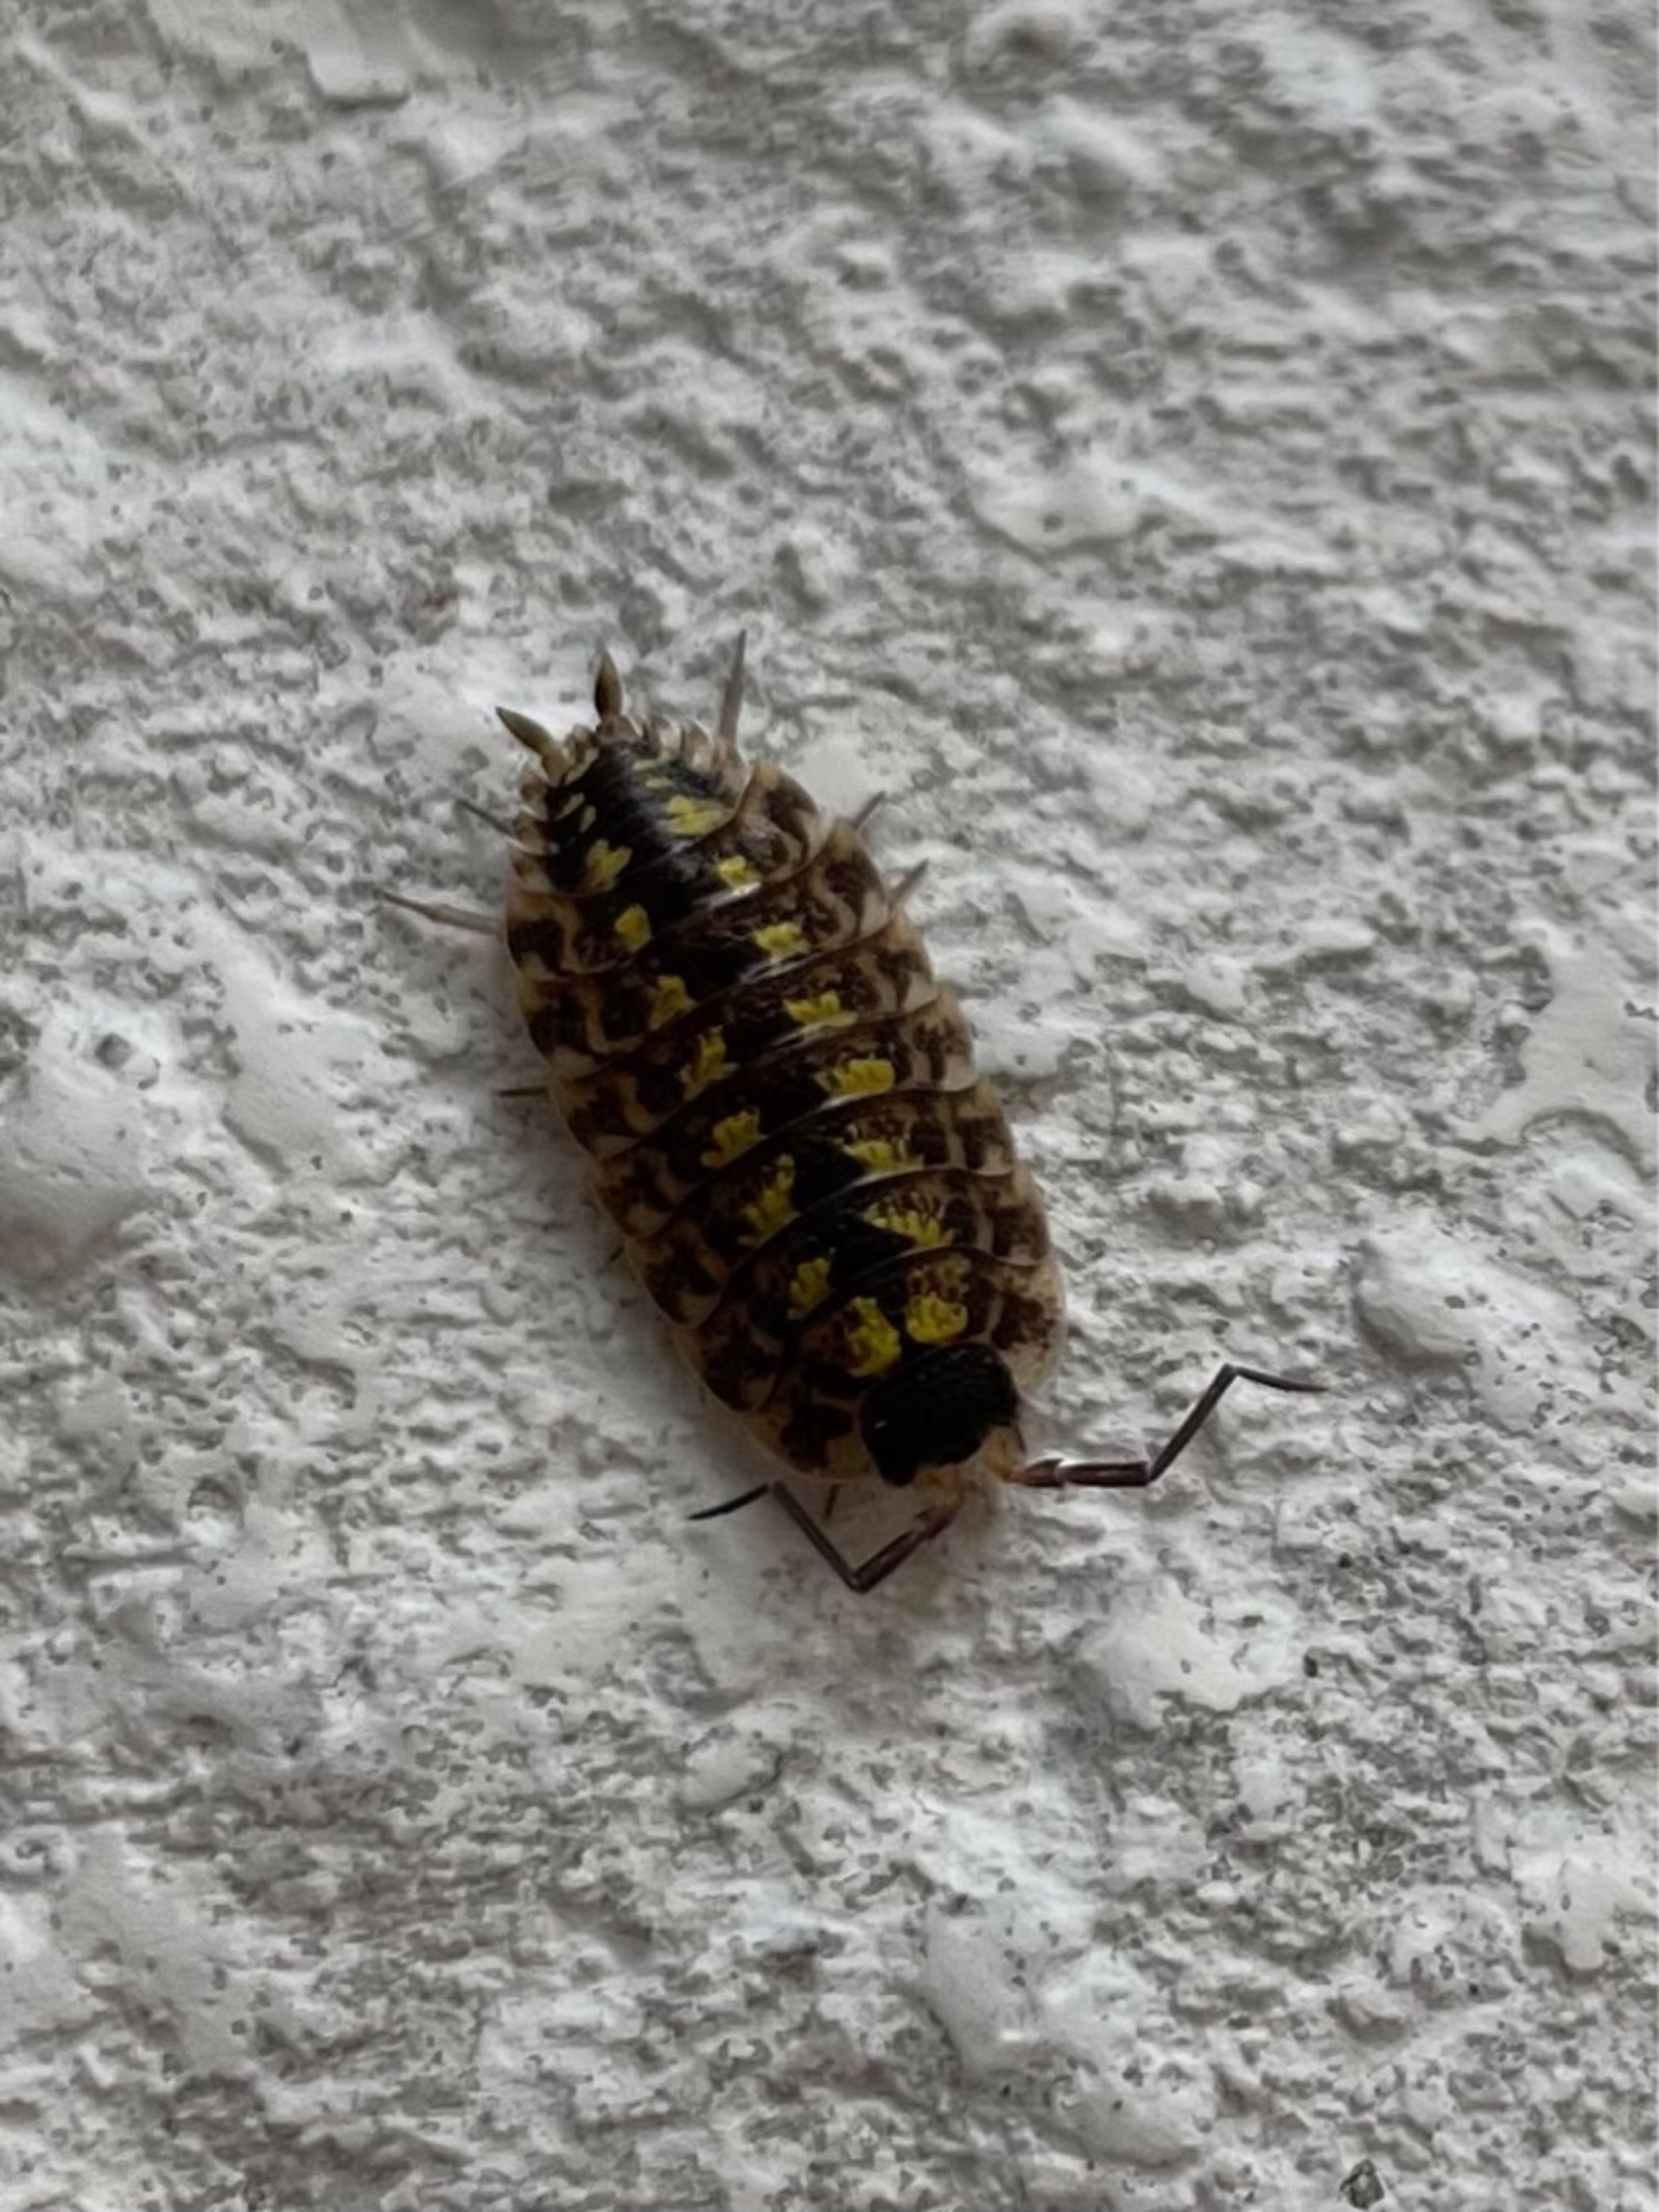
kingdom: Animalia
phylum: Arthropoda
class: Malacostraca
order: Isopoda
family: Porcellionidae
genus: Porcellio
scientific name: Porcellio spinicornis
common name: Sorthovedet bænkebider
